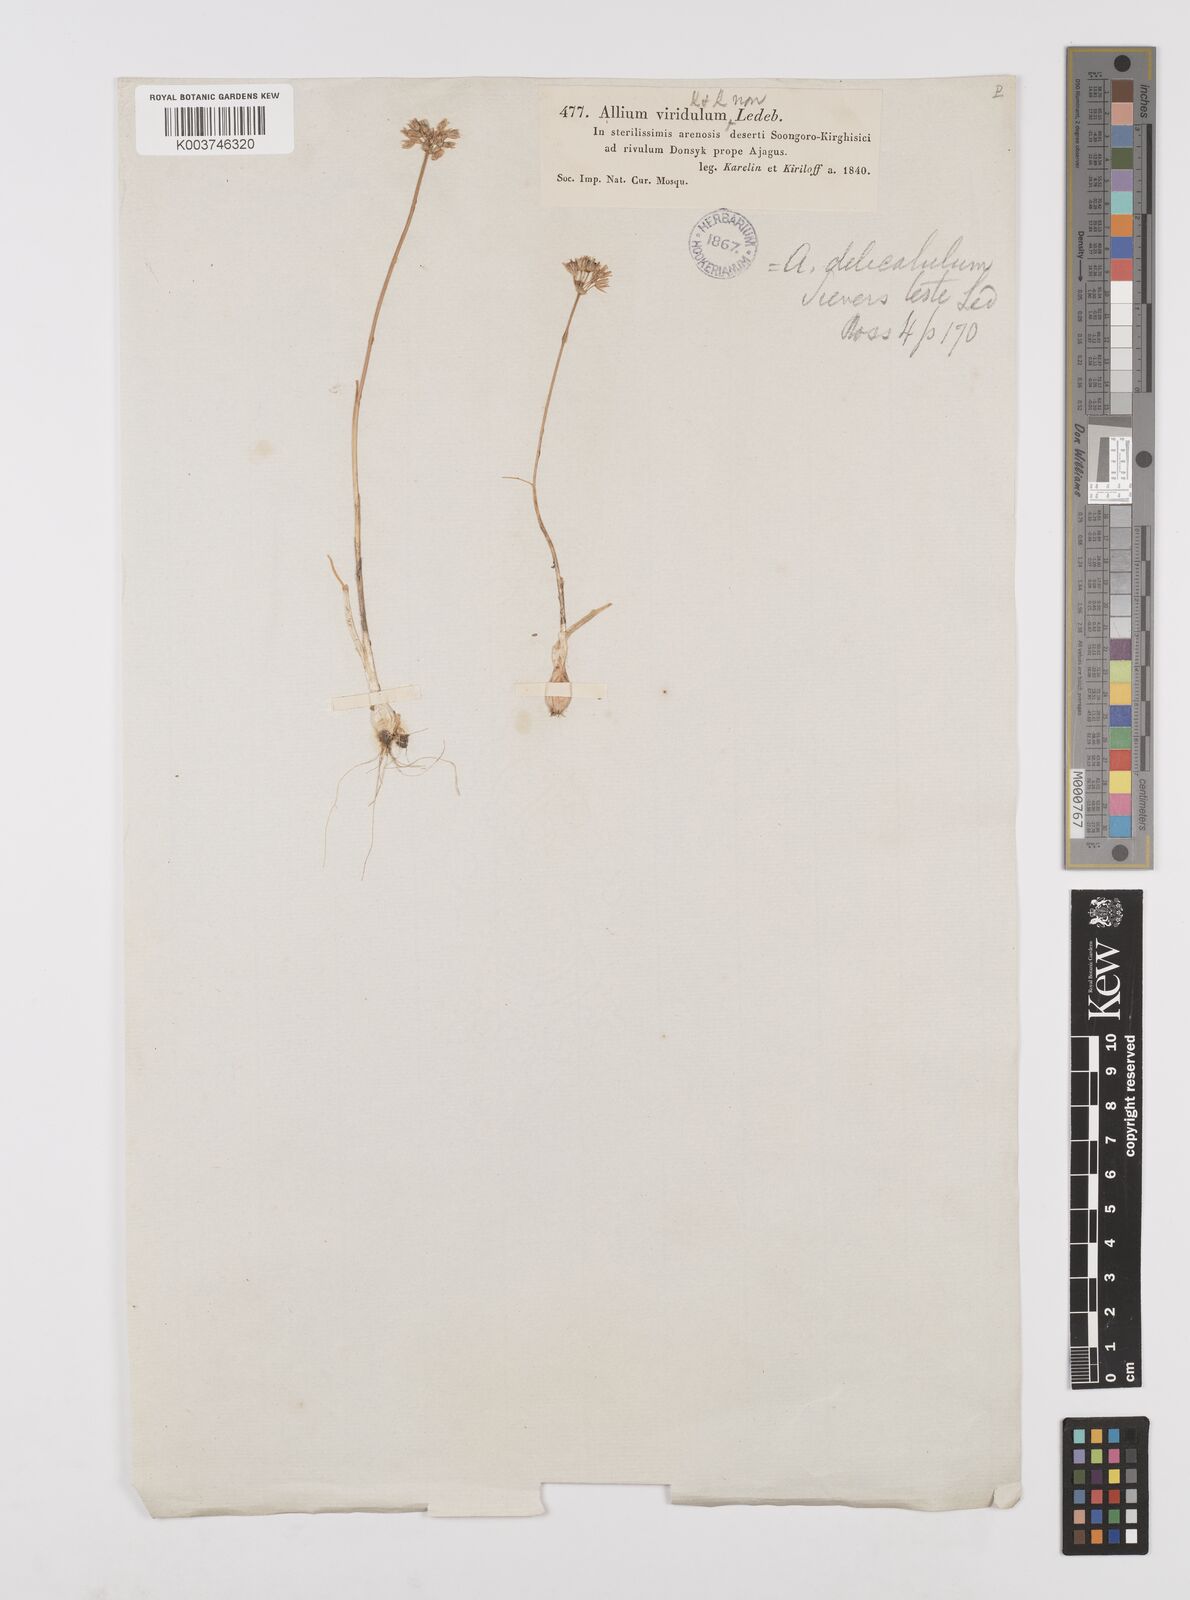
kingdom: Plantae
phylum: Tracheophyta
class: Liliopsida
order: Asparagales
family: Amaryllidaceae
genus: Allium
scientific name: Allium delicatulum
